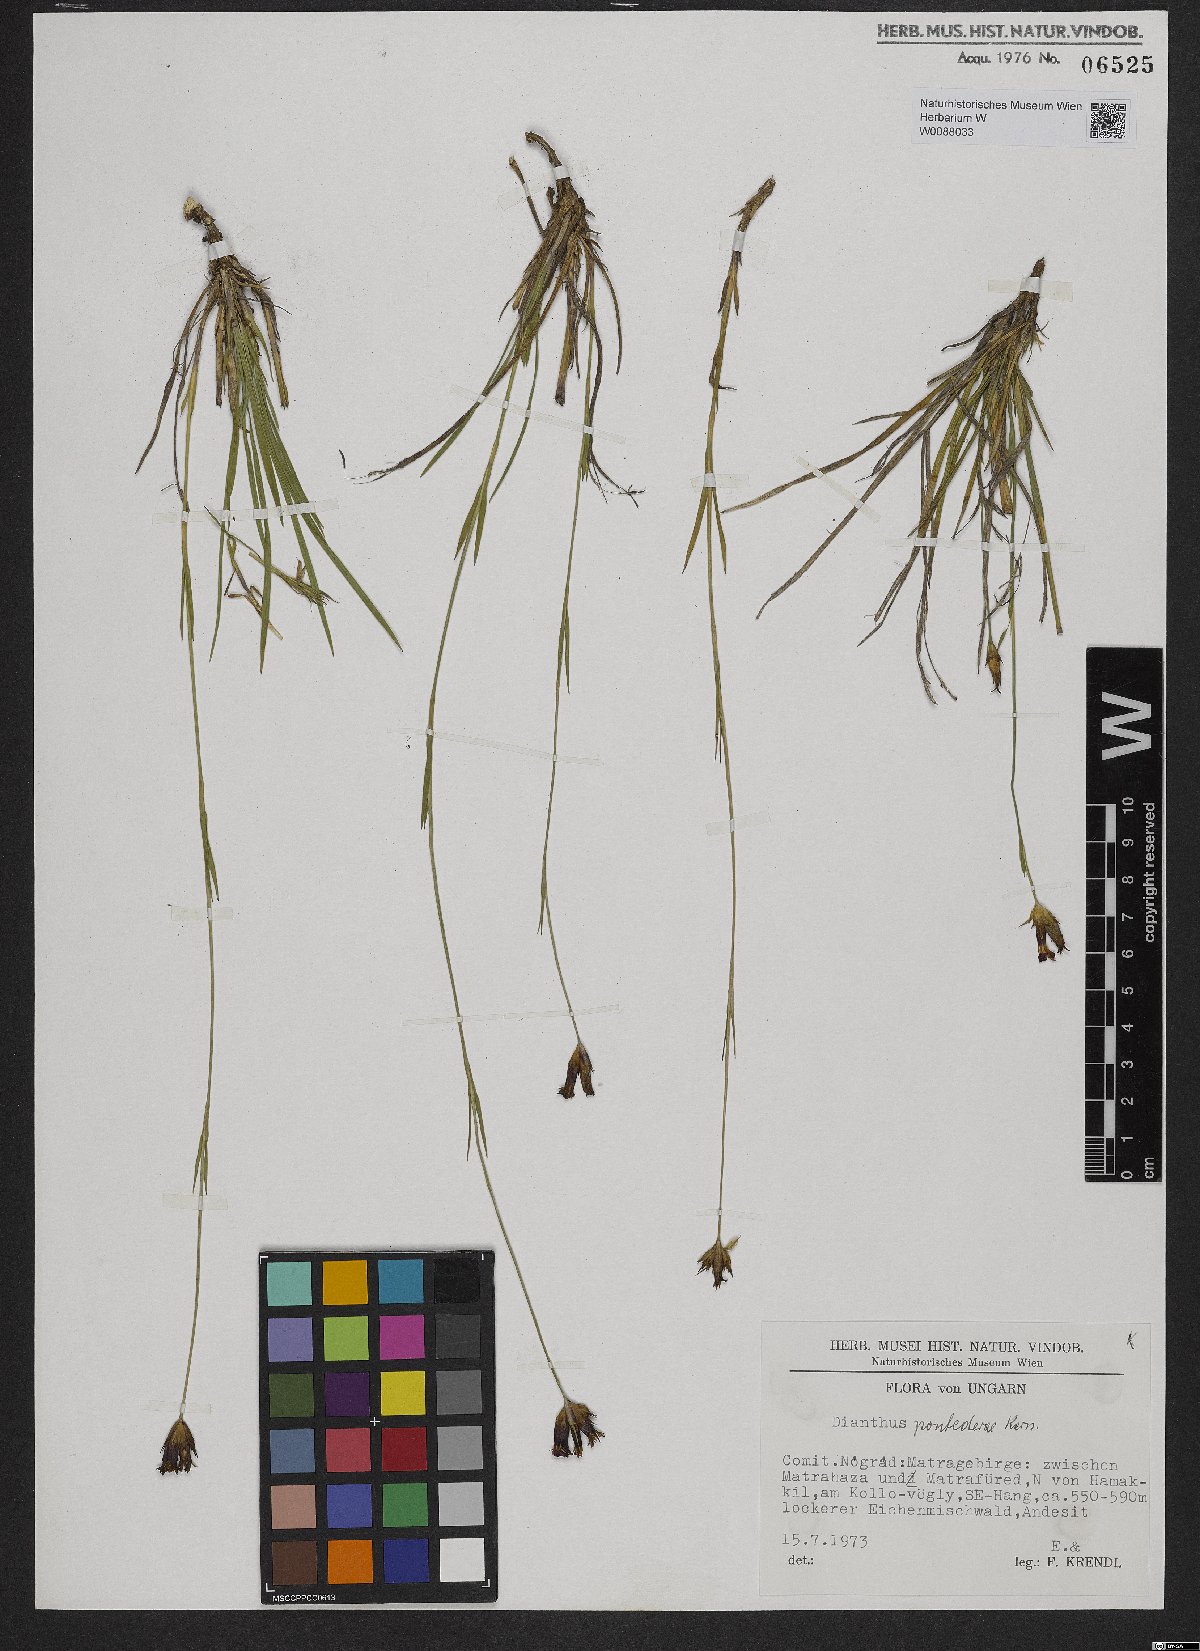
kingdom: Plantae
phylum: Tracheophyta
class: Magnoliopsida
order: Caryophyllales
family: Caryophyllaceae
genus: Dianthus
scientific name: Dianthus pontederae
